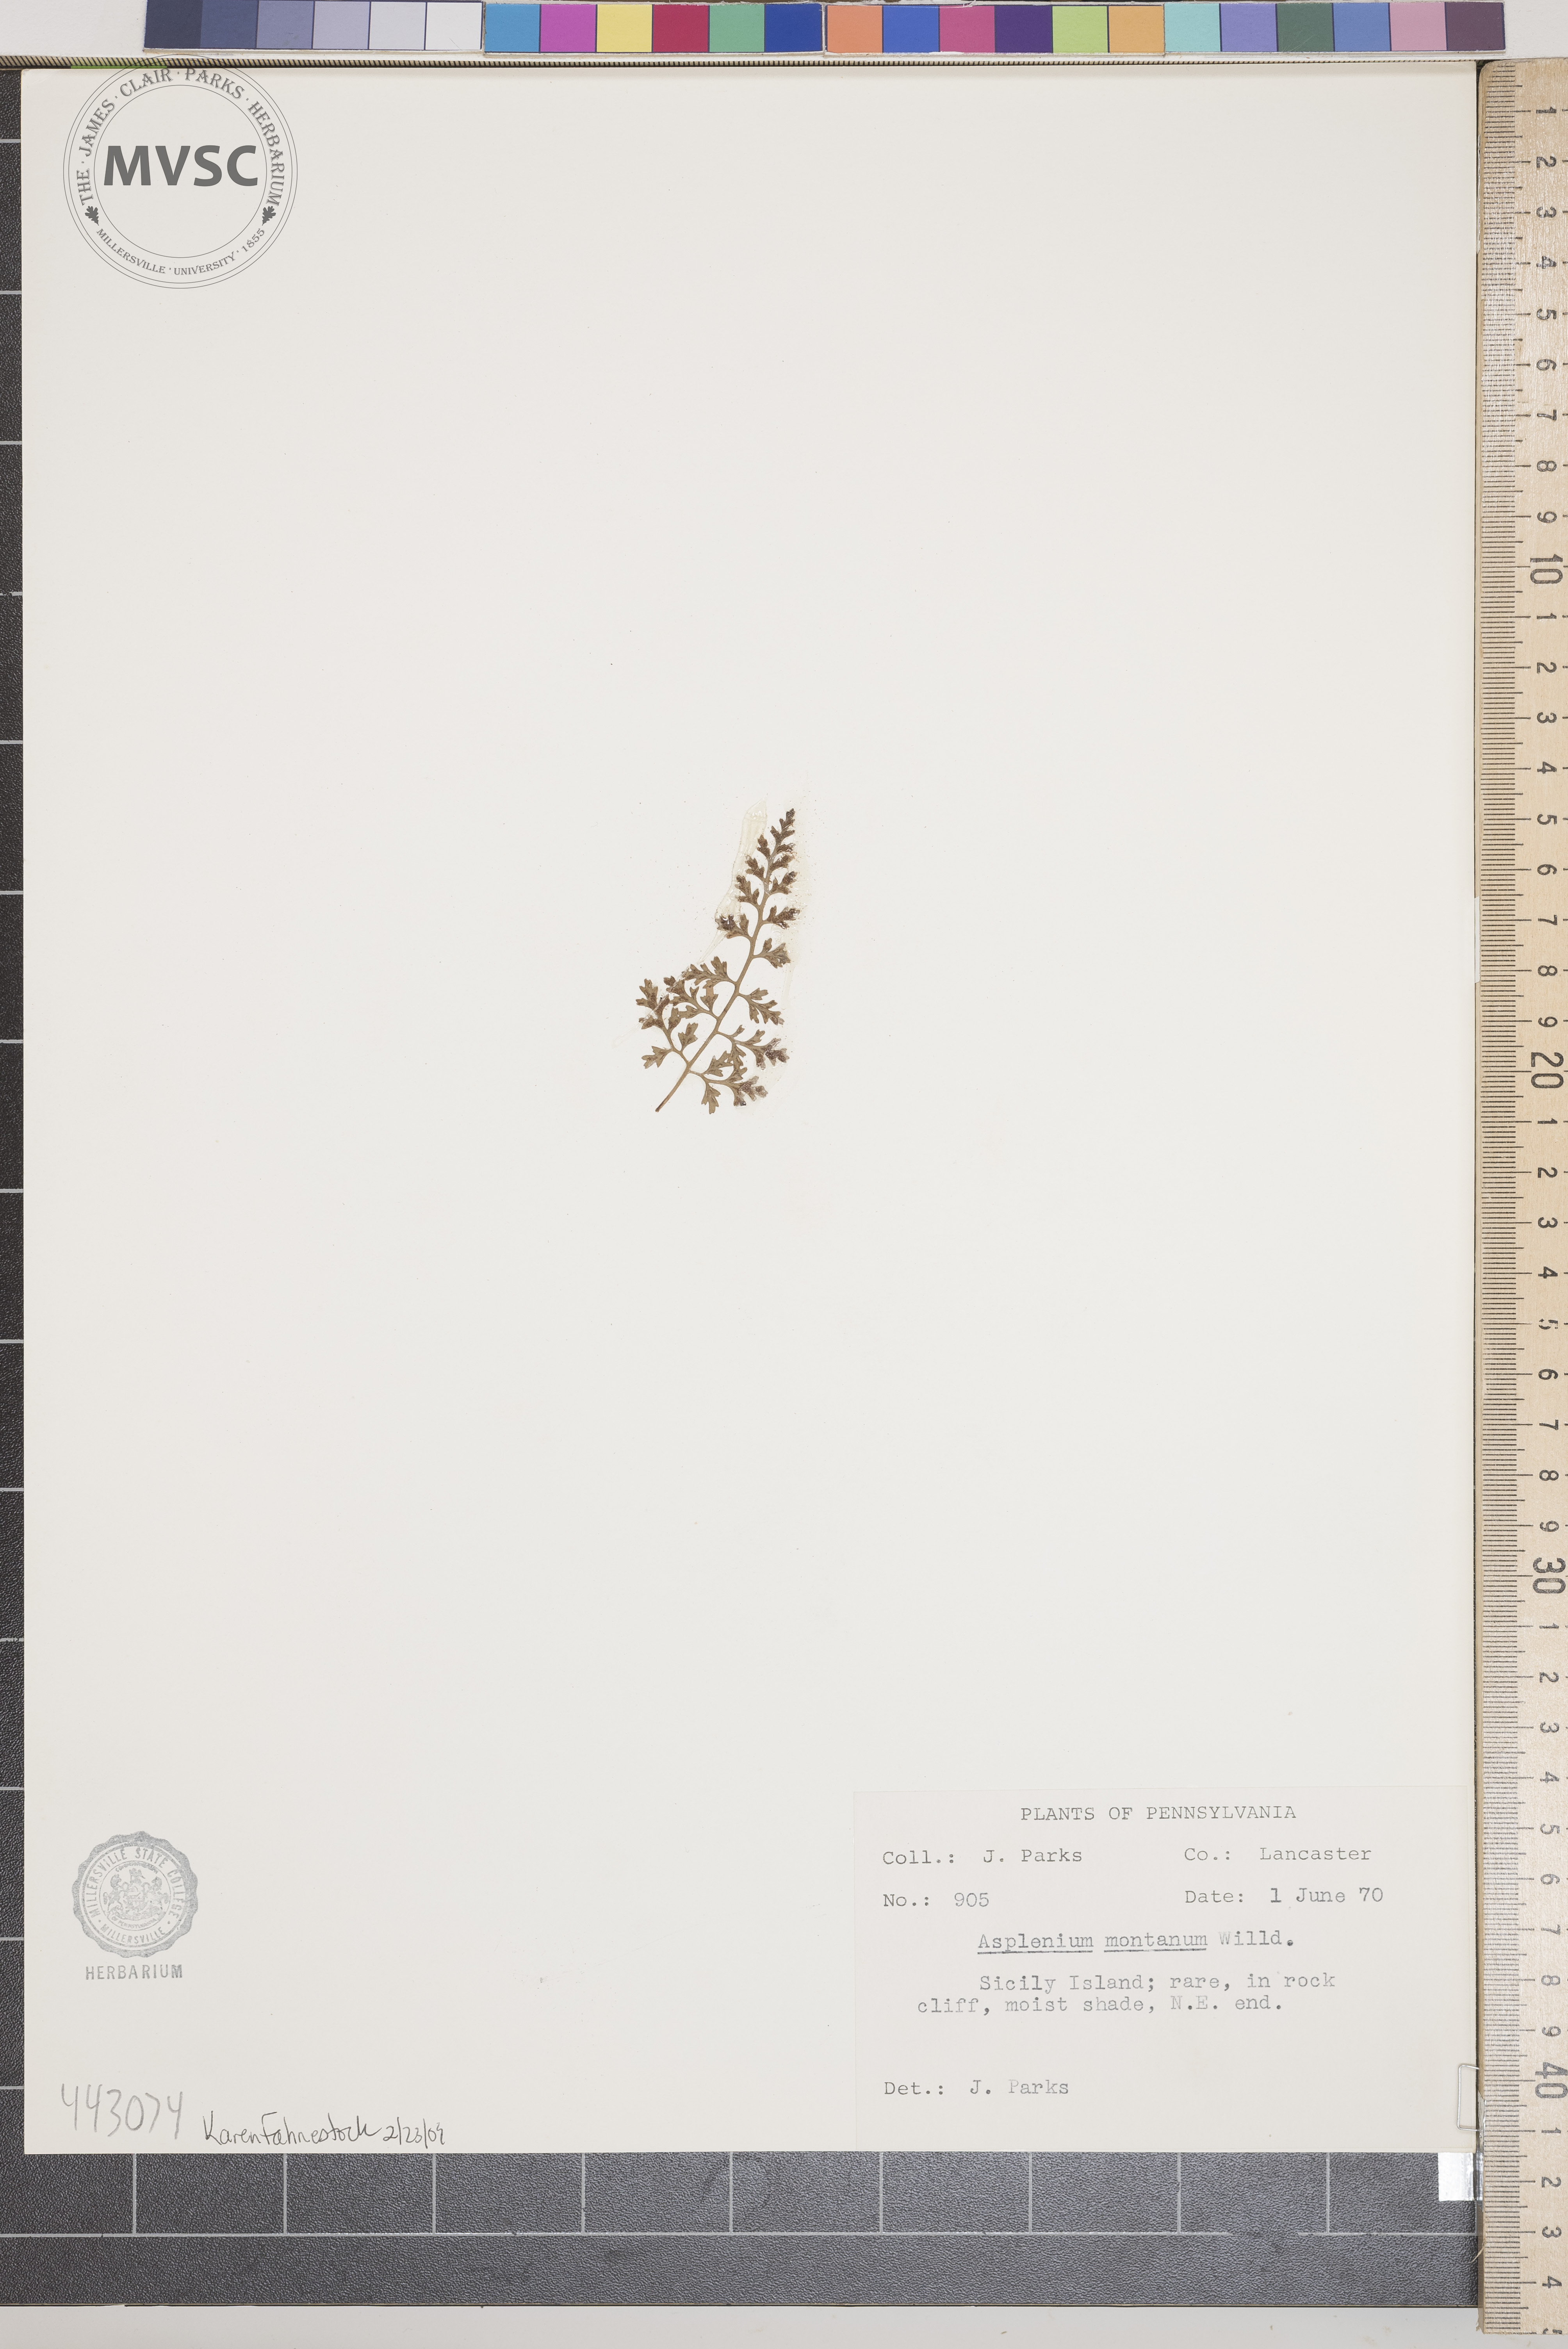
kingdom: Plantae
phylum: Tracheophyta
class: Polypodiopsida
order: Polypodiales
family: Aspleniaceae
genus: Asplenium
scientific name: Asplenium montanum
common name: Mountain spleenwort
